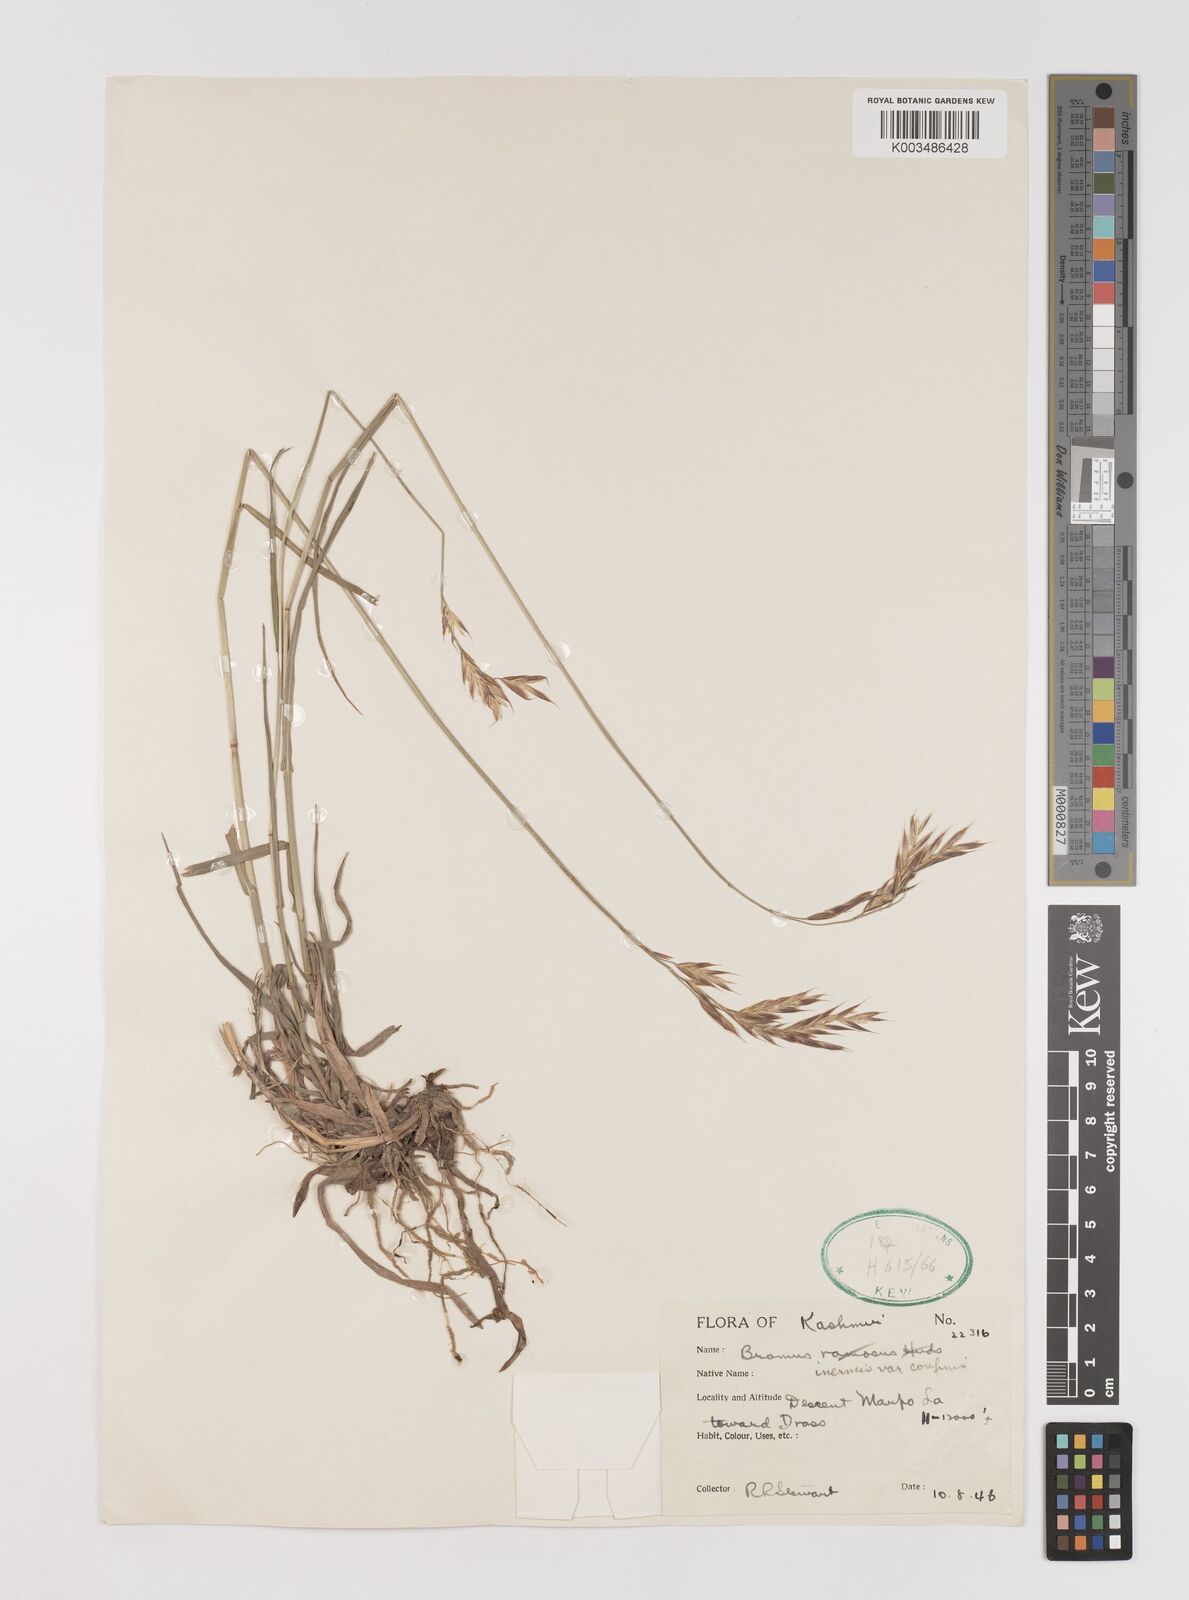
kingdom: Plantae
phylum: Tracheophyta
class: Liliopsida
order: Poales
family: Poaceae
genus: Bromus
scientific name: Bromus confinis
